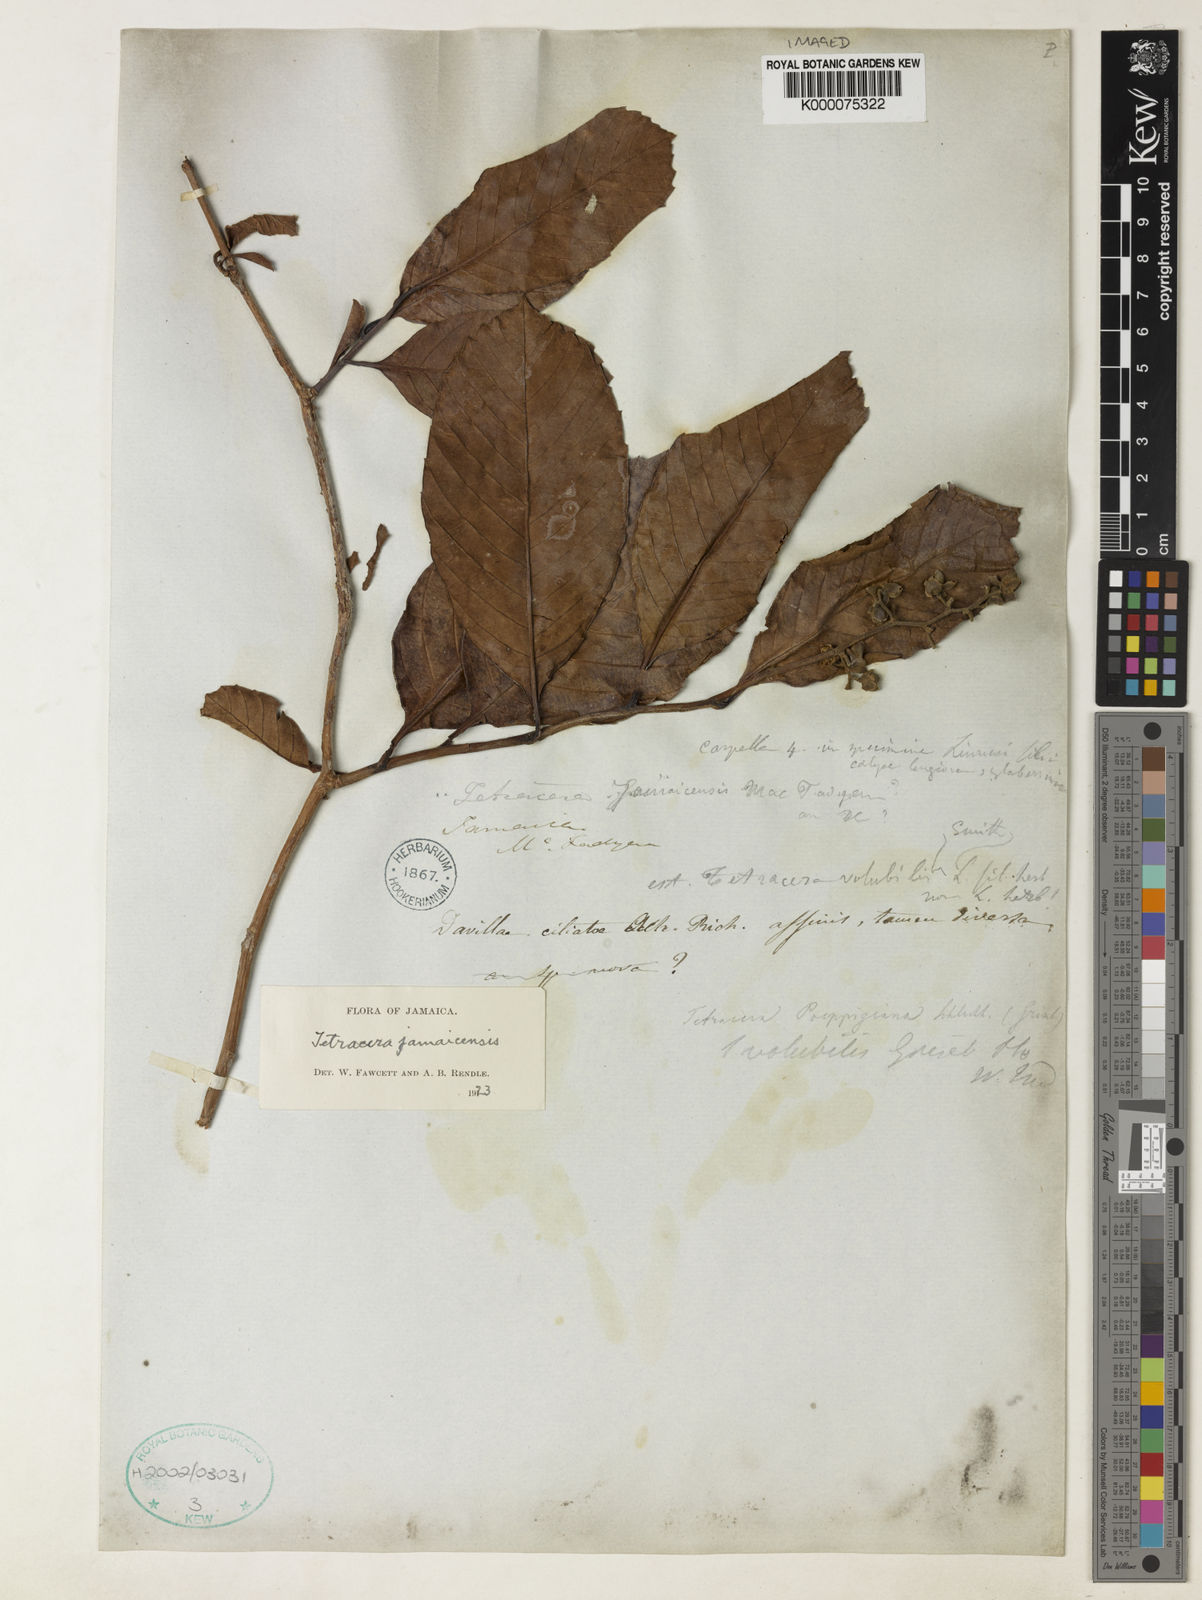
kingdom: Plantae
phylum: Tracheophyta
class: Magnoliopsida
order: Dilleniales
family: Dilleniaceae
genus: Tetracera
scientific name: Tetracera volubilis
